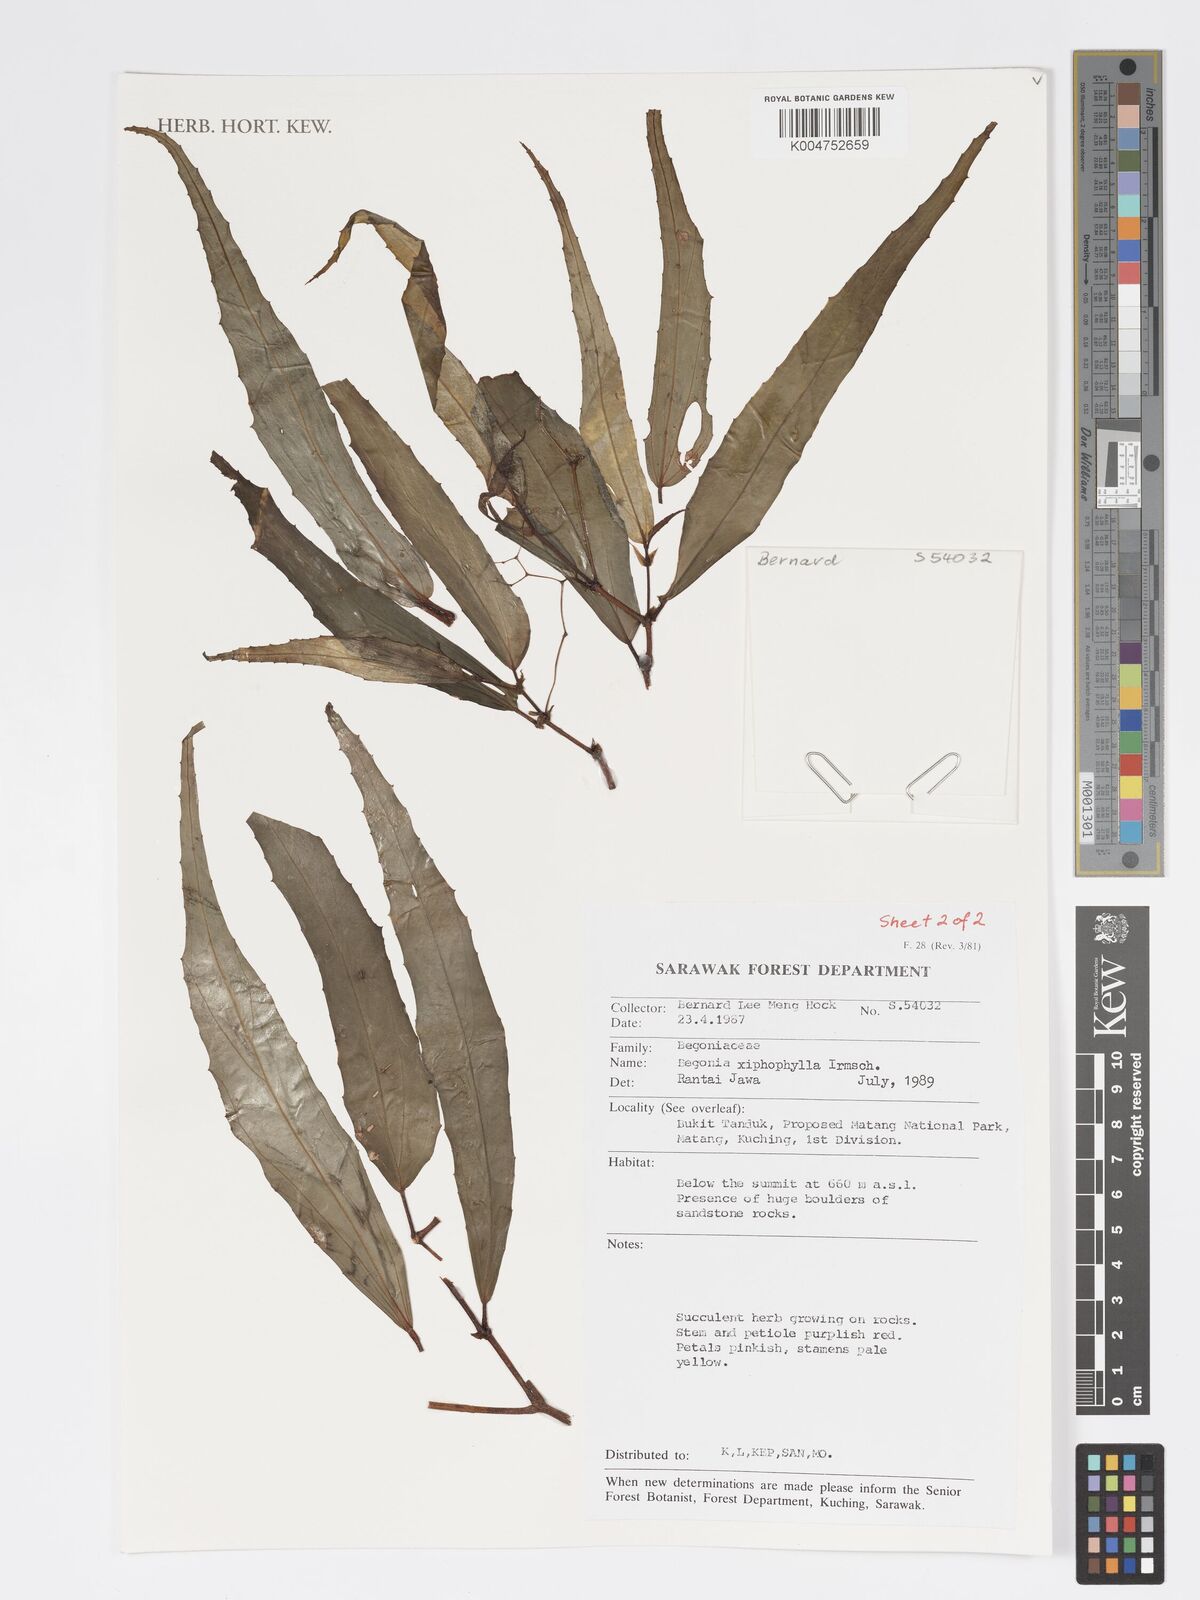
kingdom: Plantae
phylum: Tracheophyta
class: Magnoliopsida
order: Cucurbitales
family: Begoniaceae
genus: Begonia
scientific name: Begonia xiphophylla
